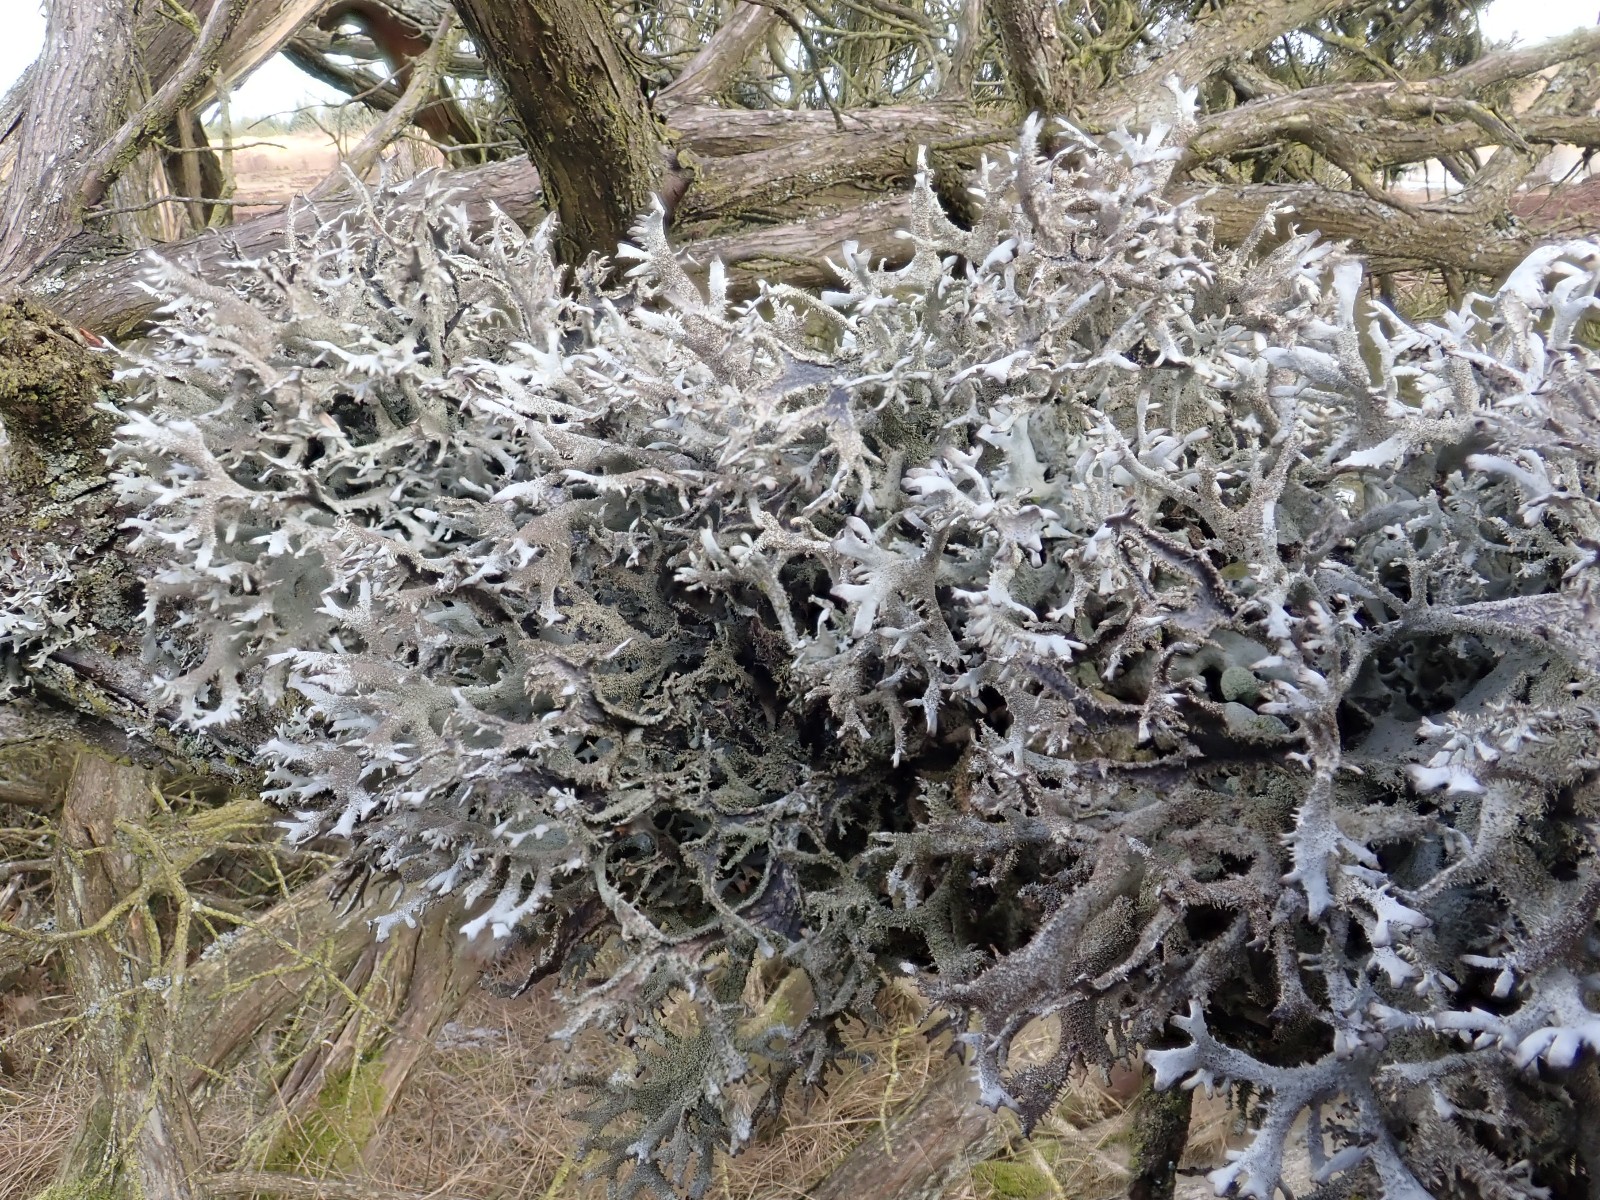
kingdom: Fungi
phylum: Ascomycota
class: Lecanoromycetes
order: Lecanorales
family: Parmeliaceae
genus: Pseudevernia
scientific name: Pseudevernia furfuracea
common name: grå fyrrelav
